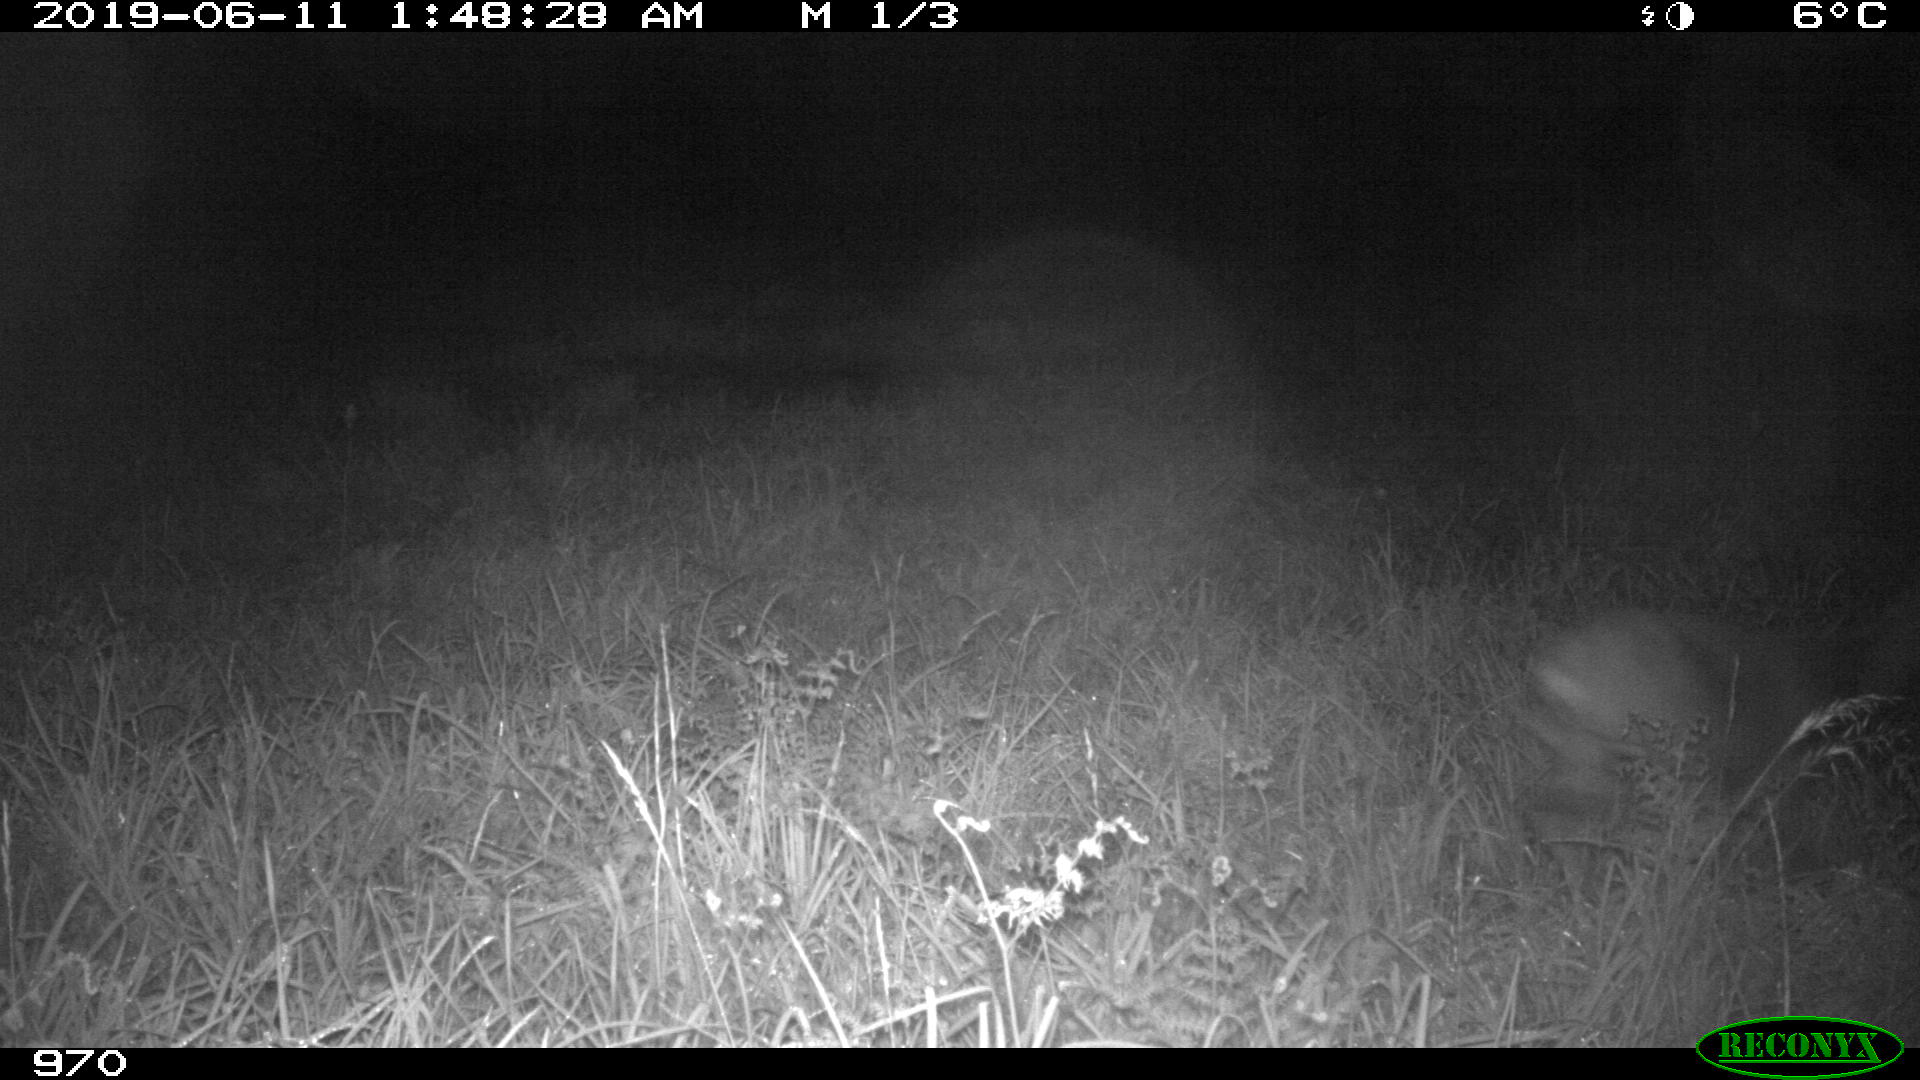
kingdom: Animalia
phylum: Chordata
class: Mammalia
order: Artiodactyla
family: Cervidae
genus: Capreolus
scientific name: Capreolus capreolus
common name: Western roe deer
